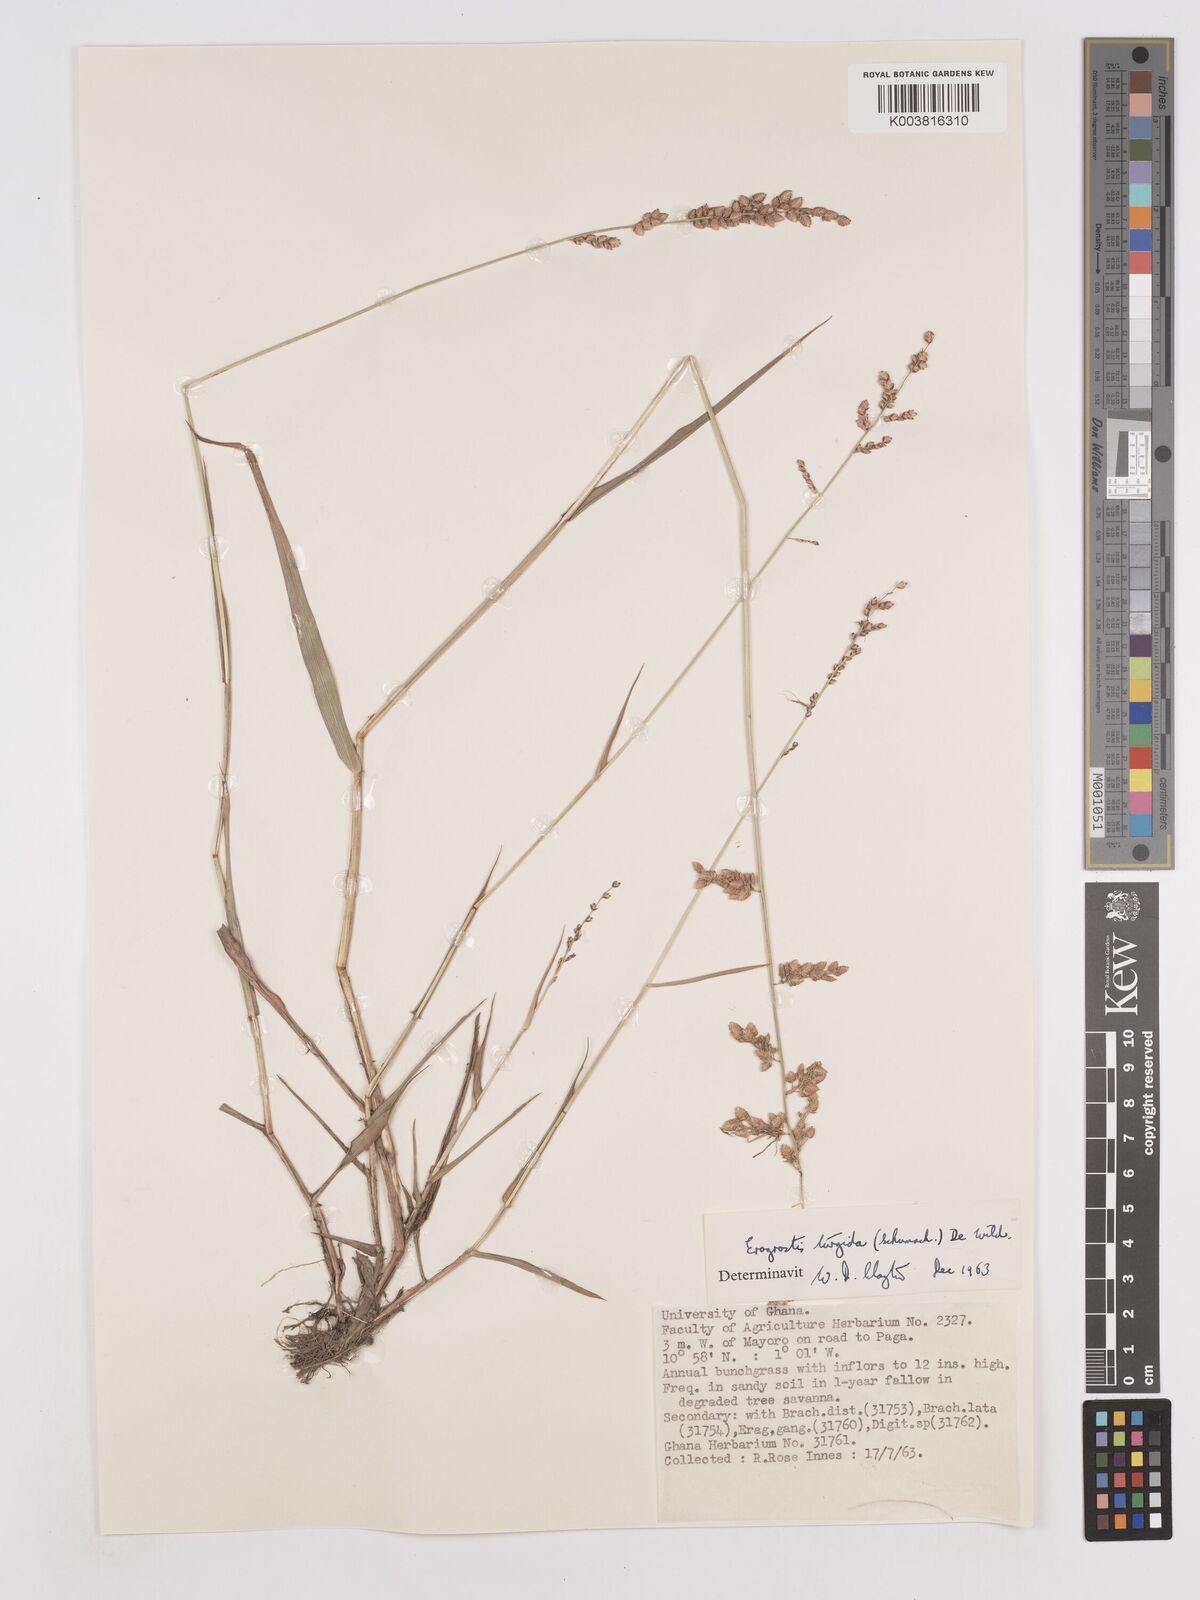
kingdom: Plantae
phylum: Tracheophyta
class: Liliopsida
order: Poales
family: Poaceae
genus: Eragrostis
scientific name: Eragrostis turgida
